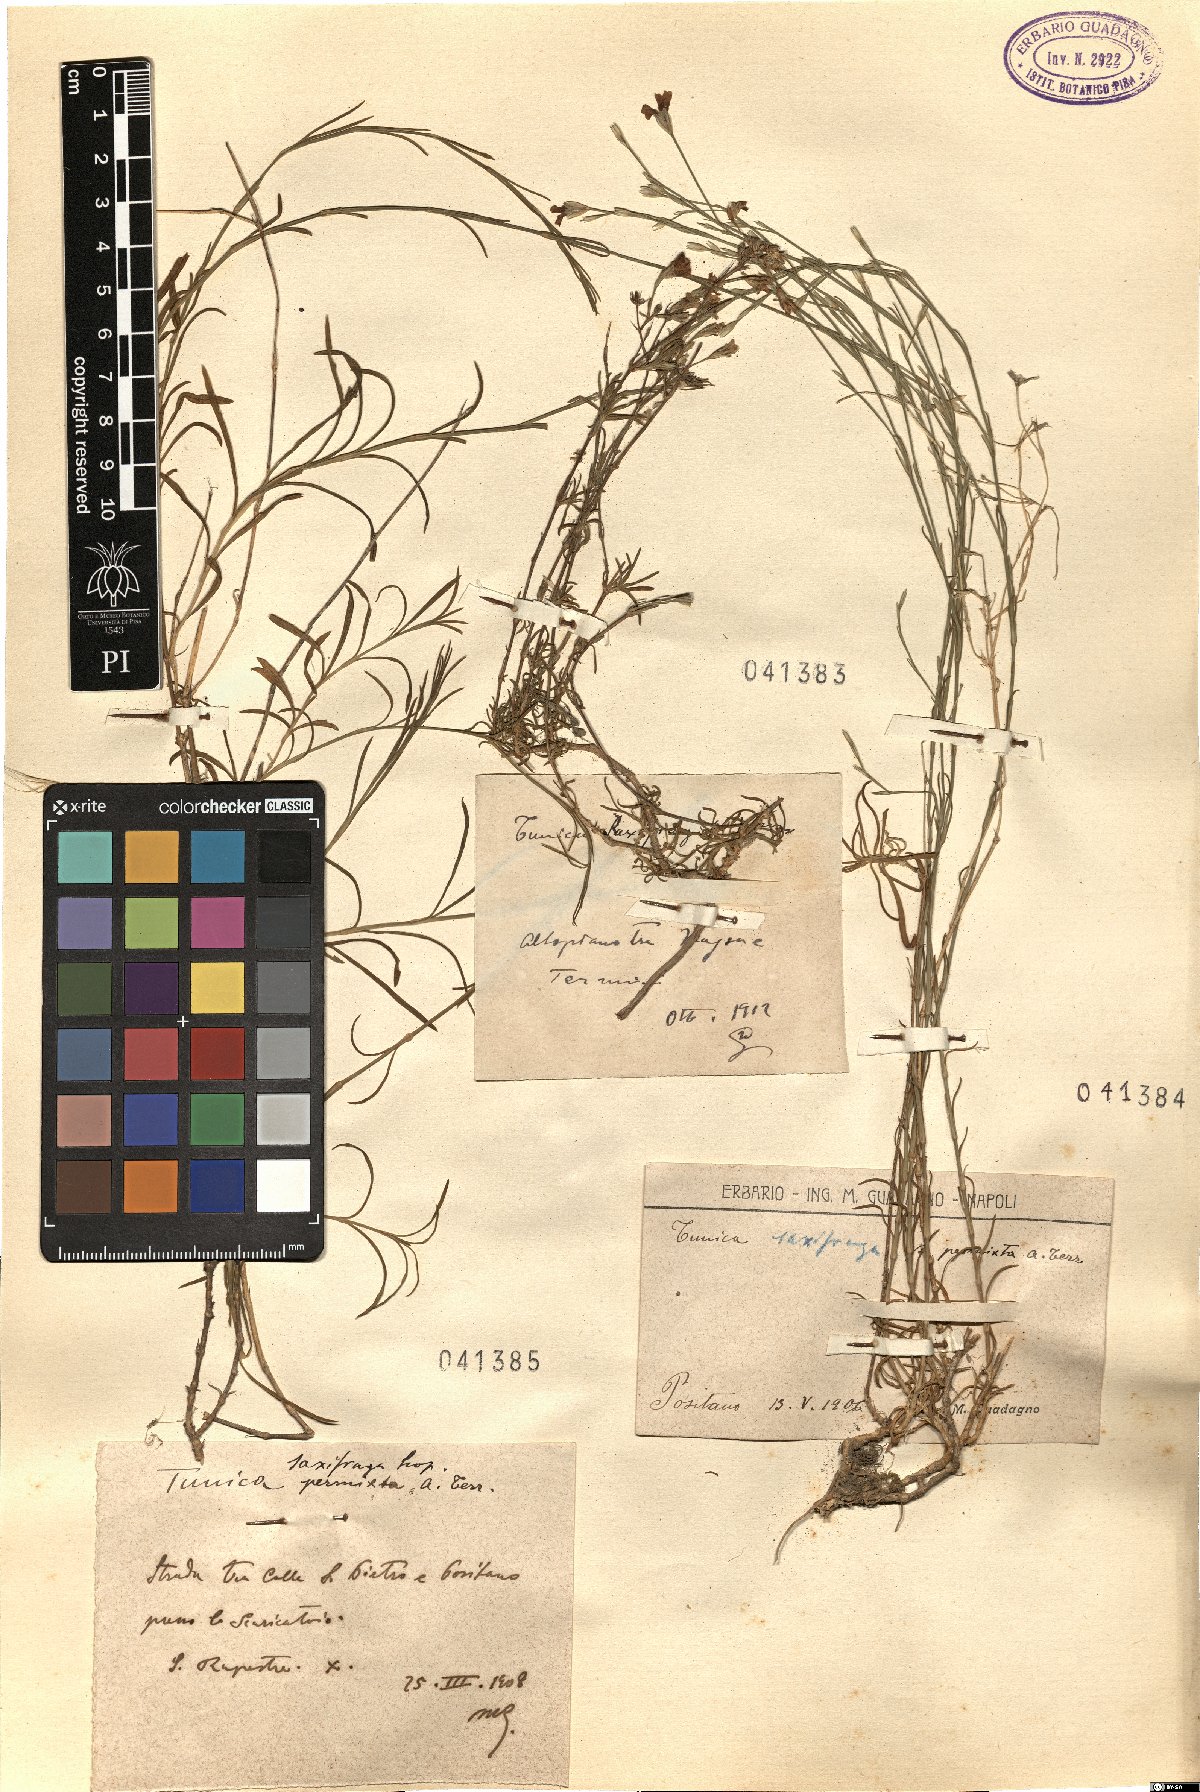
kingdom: Plantae
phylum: Tracheophyta
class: Magnoliopsida
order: Caryophyllales
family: Caryophyllaceae
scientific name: Caryophyllaceae
